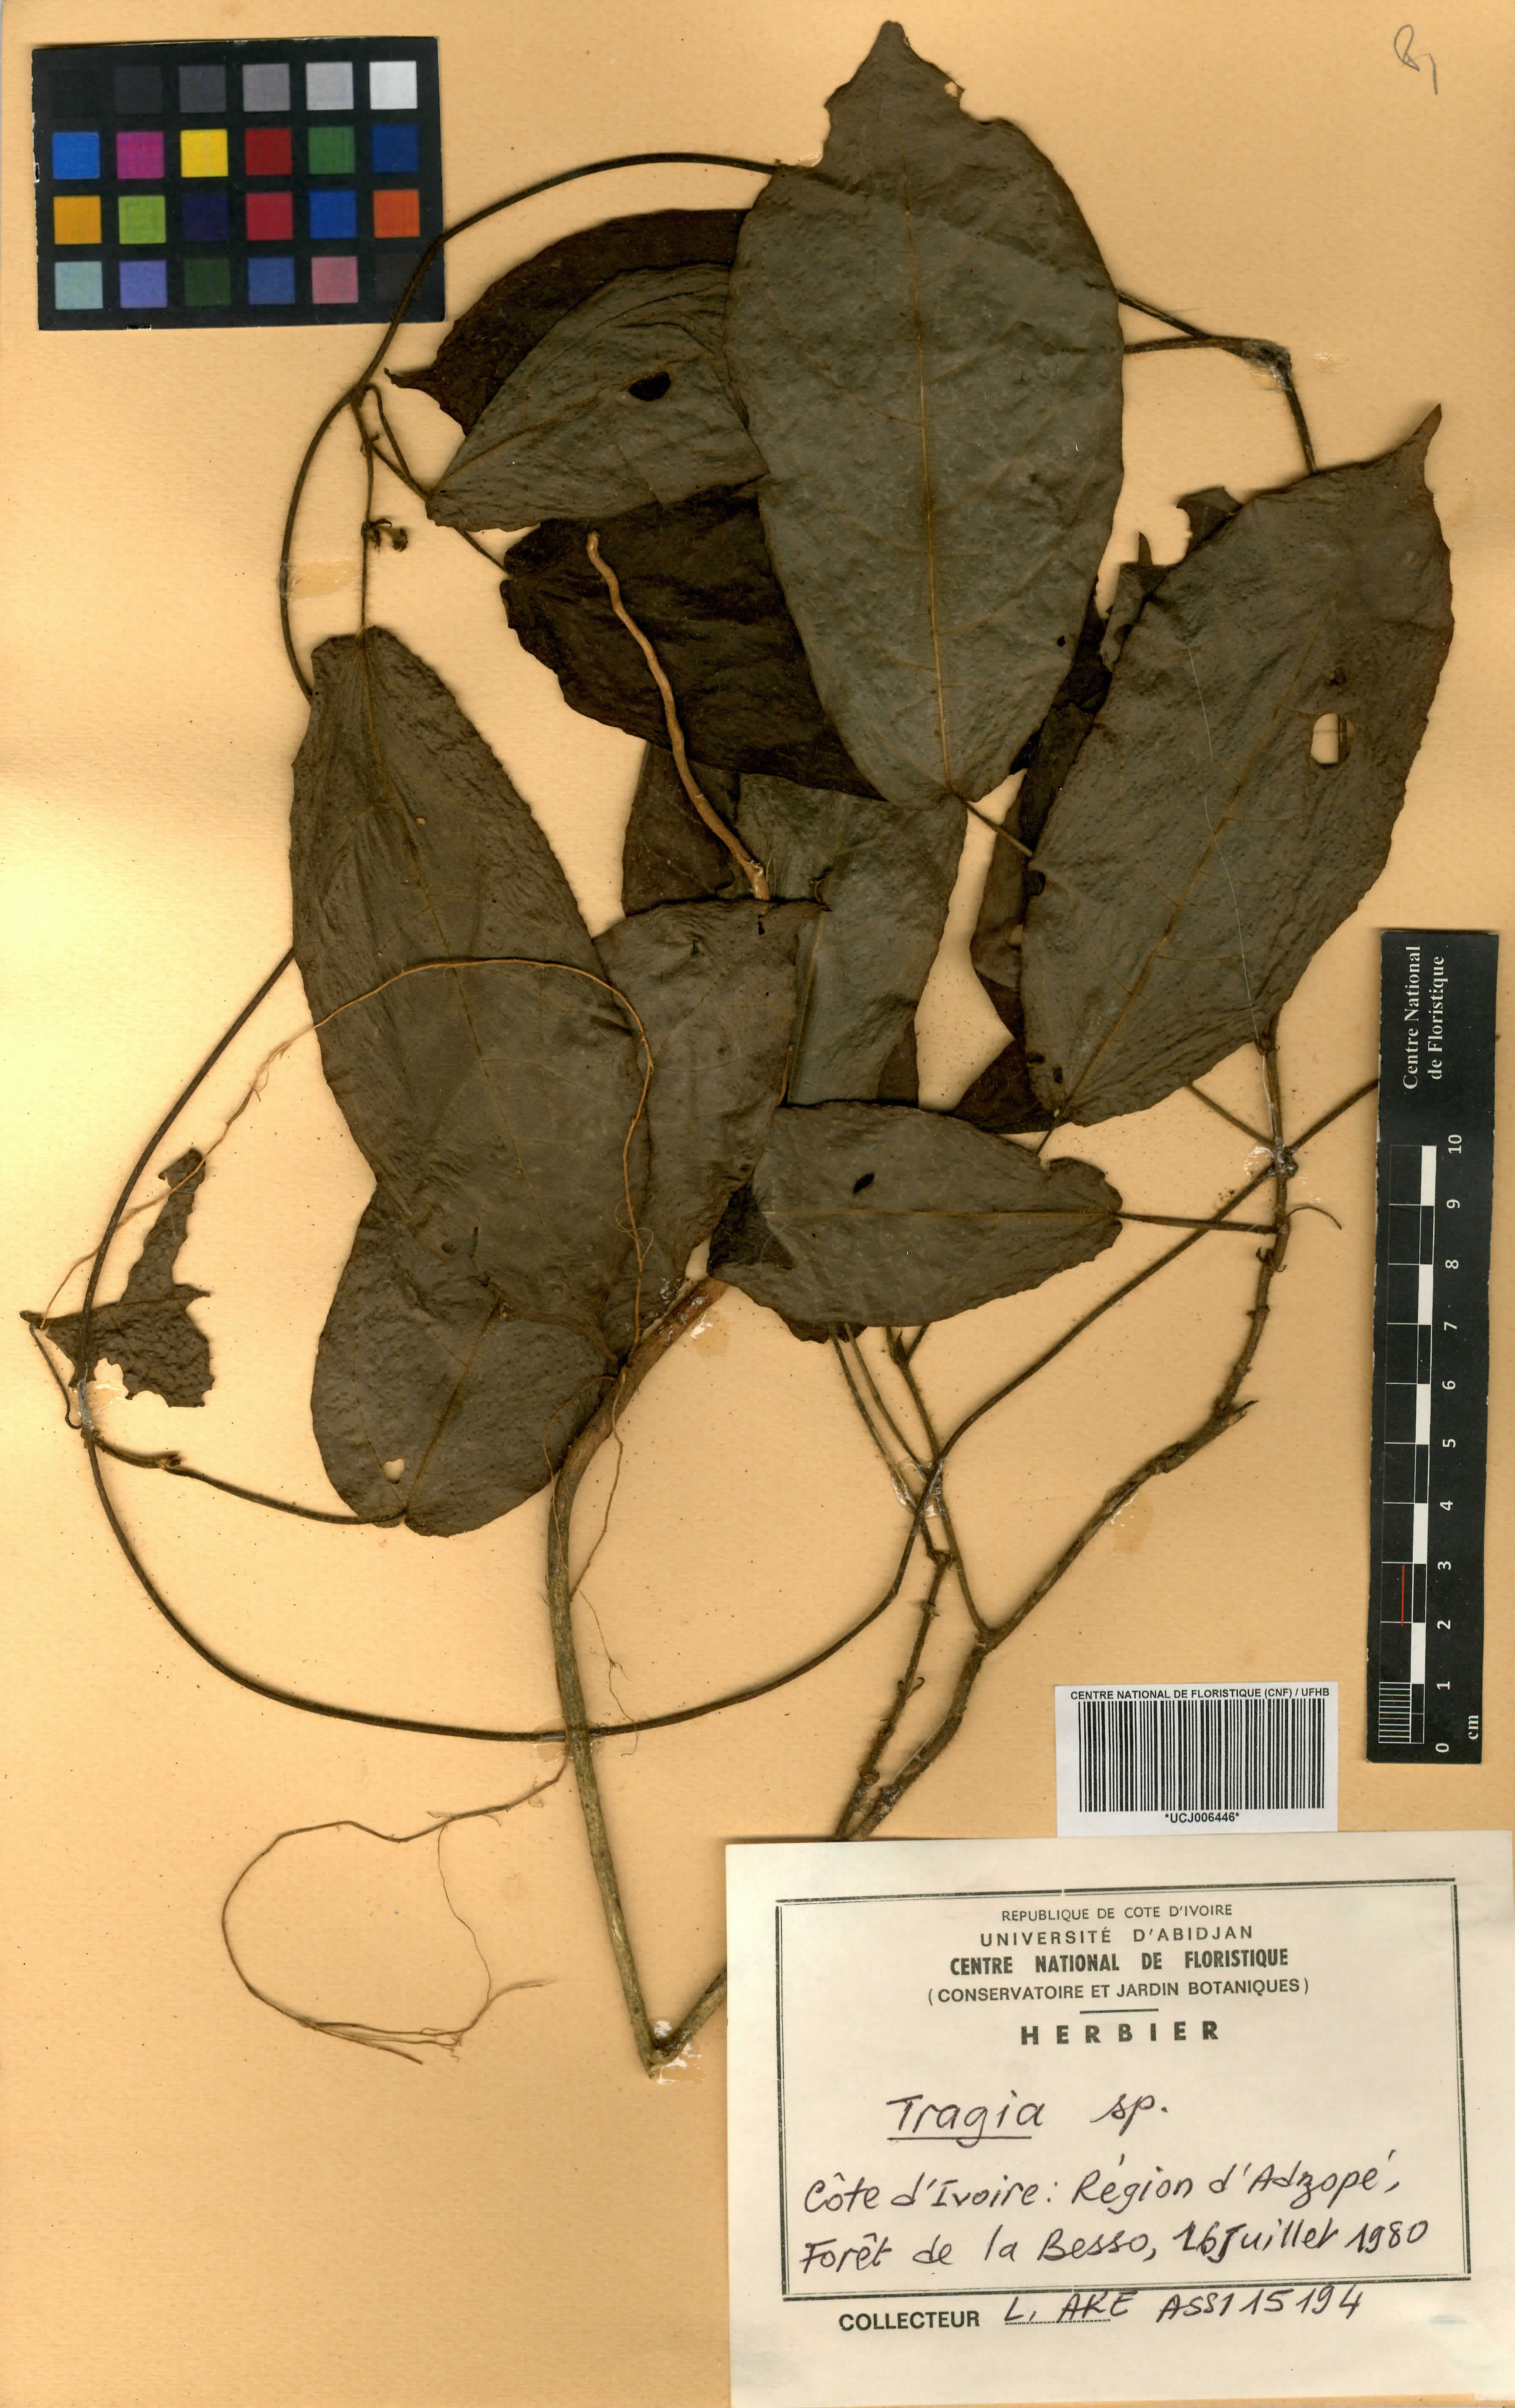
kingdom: Plantae
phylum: Tracheophyta
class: Magnoliopsida
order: Malpighiales
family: Euphorbiaceae
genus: Tragia
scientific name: Tragia
